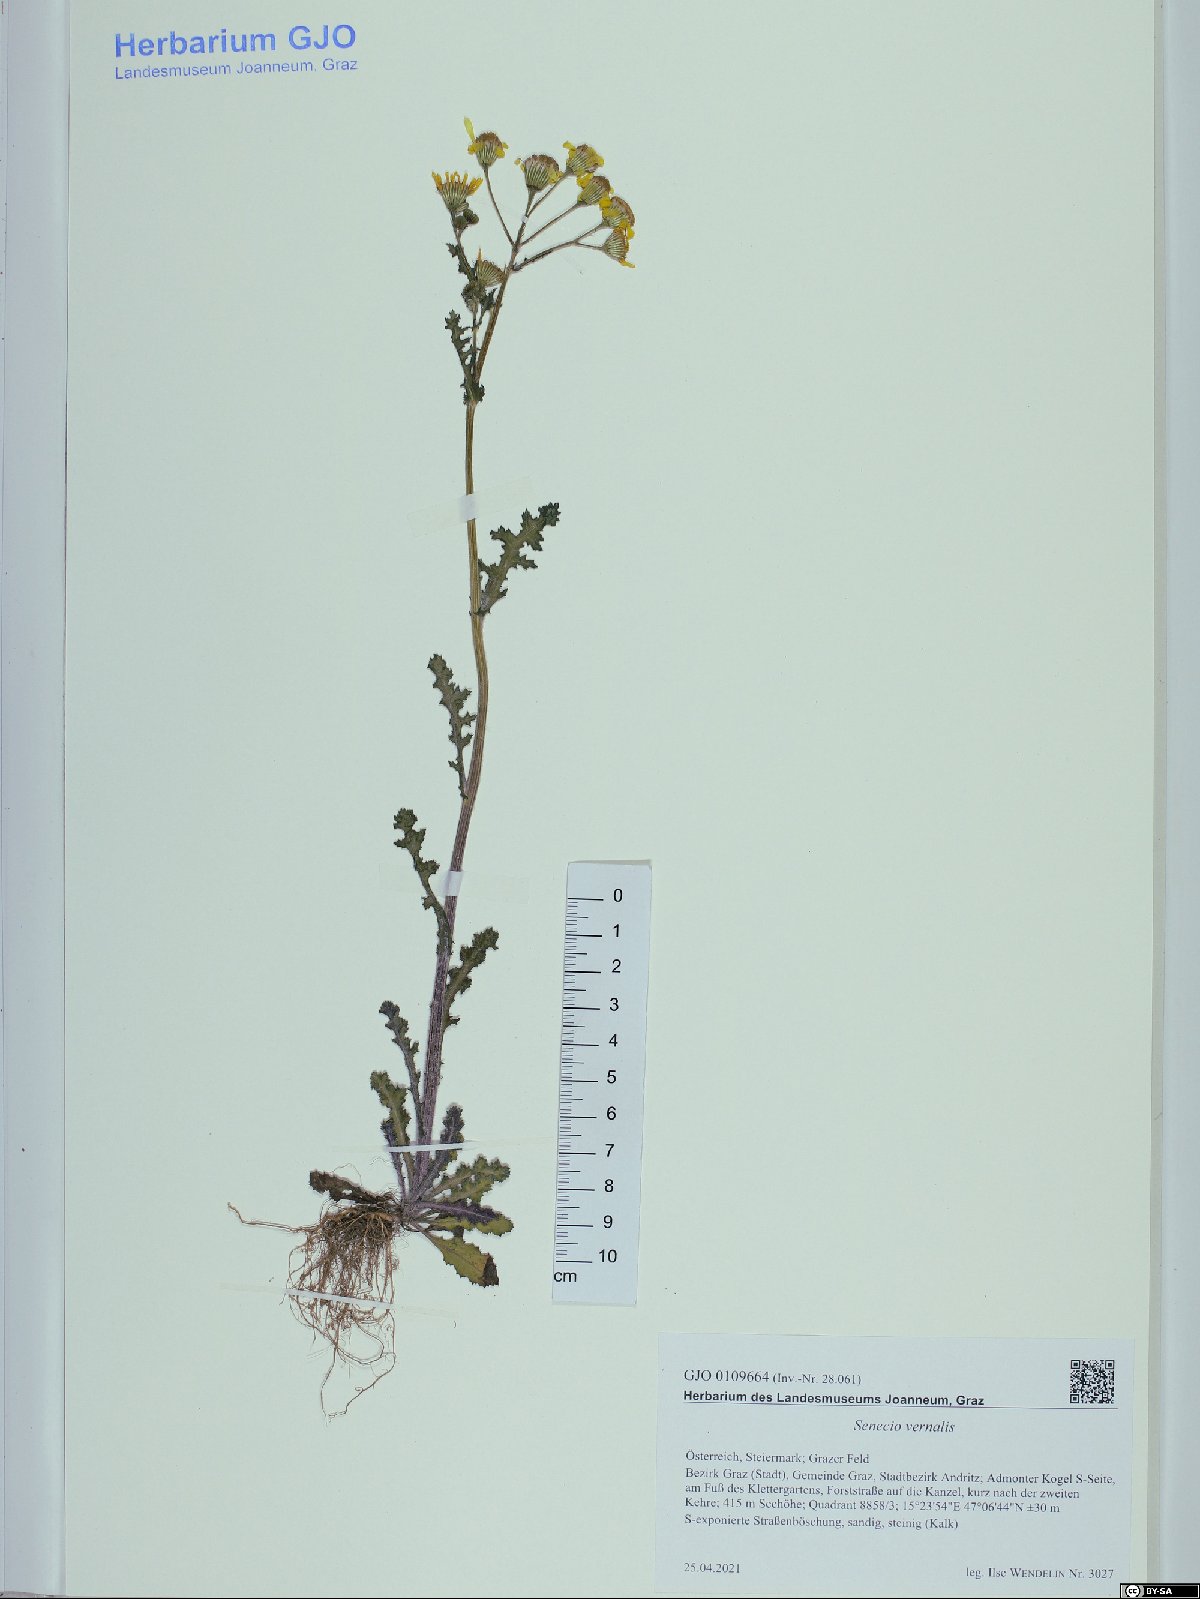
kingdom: Plantae
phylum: Tracheophyta
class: Magnoliopsida
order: Asterales
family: Asteraceae
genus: Senecio
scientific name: Senecio vernalis
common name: Eastern groundsel
